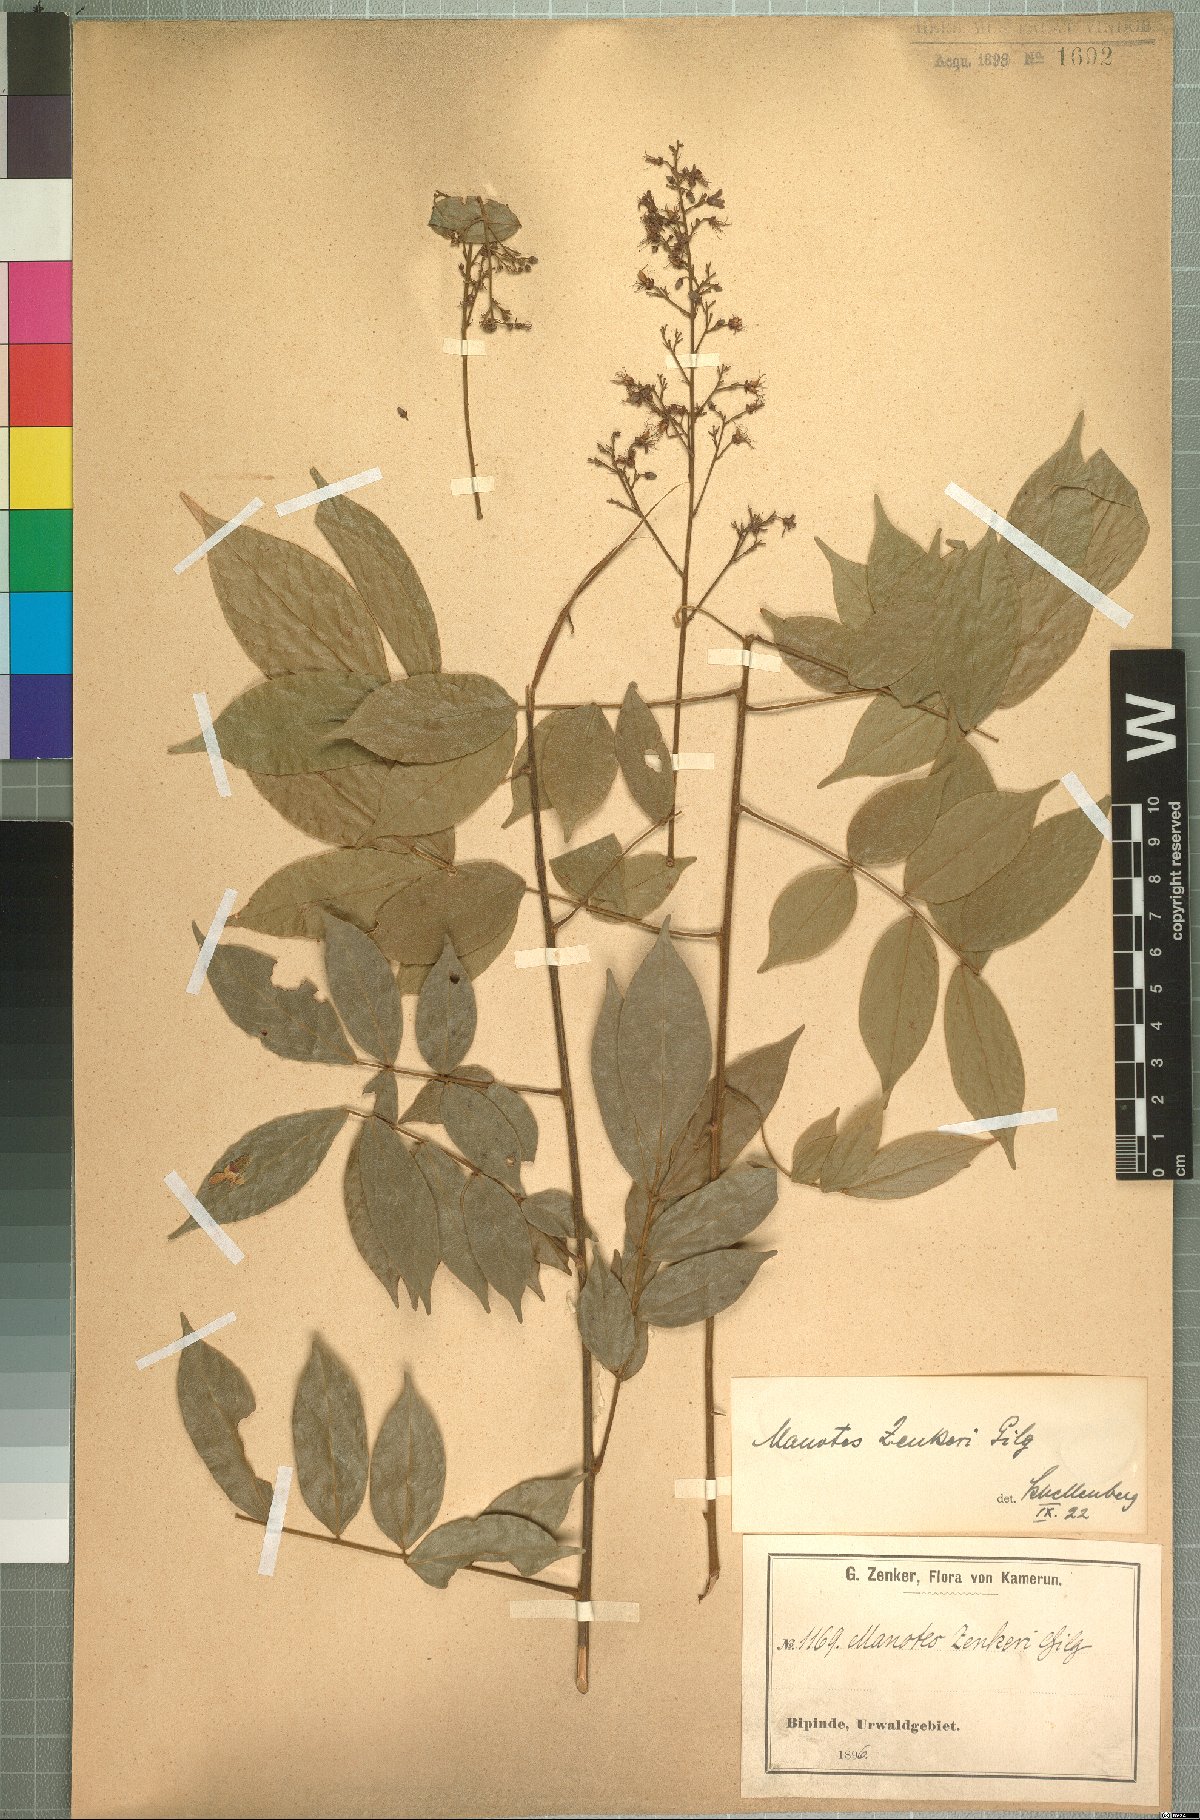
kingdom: Plantae
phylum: Tracheophyta
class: Magnoliopsida
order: Oxalidales
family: Connaraceae
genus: Manotes
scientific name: Manotes griffoniana
